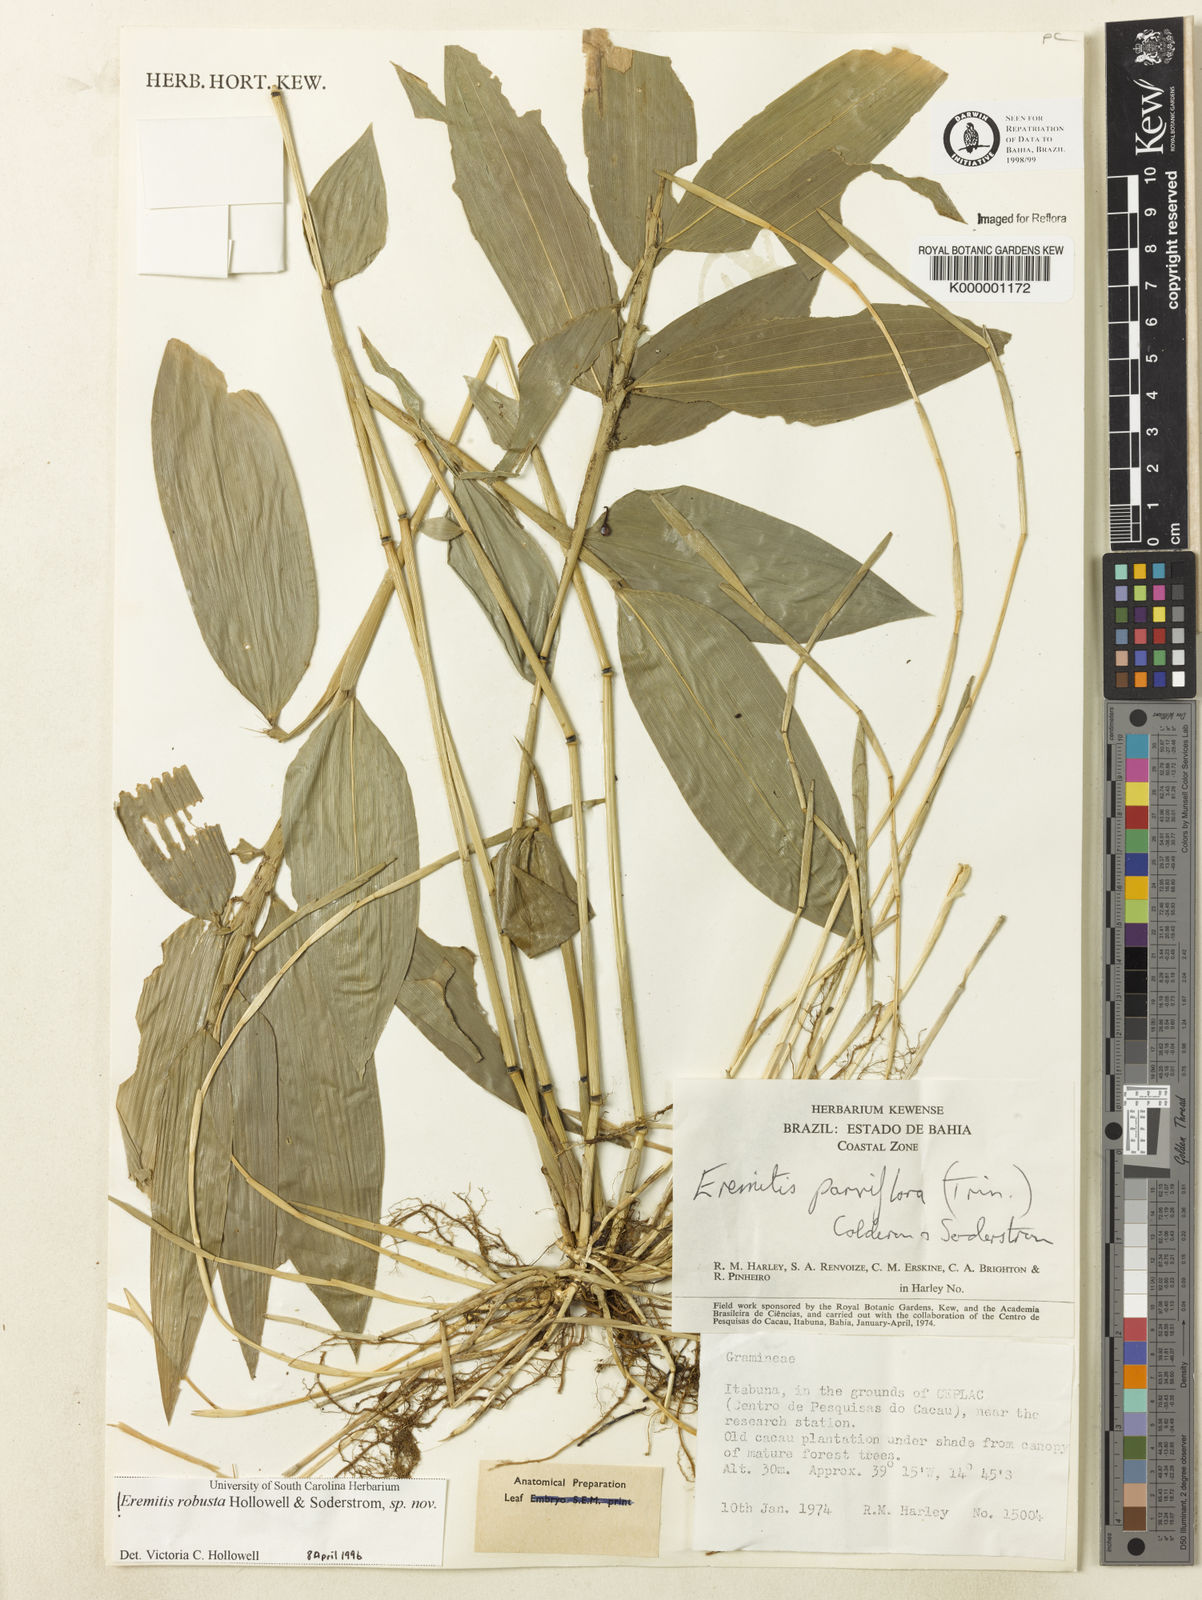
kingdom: Plantae
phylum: Tracheophyta
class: Liliopsida
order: Poales
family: Poaceae
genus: Eremitis
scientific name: Eremitis
